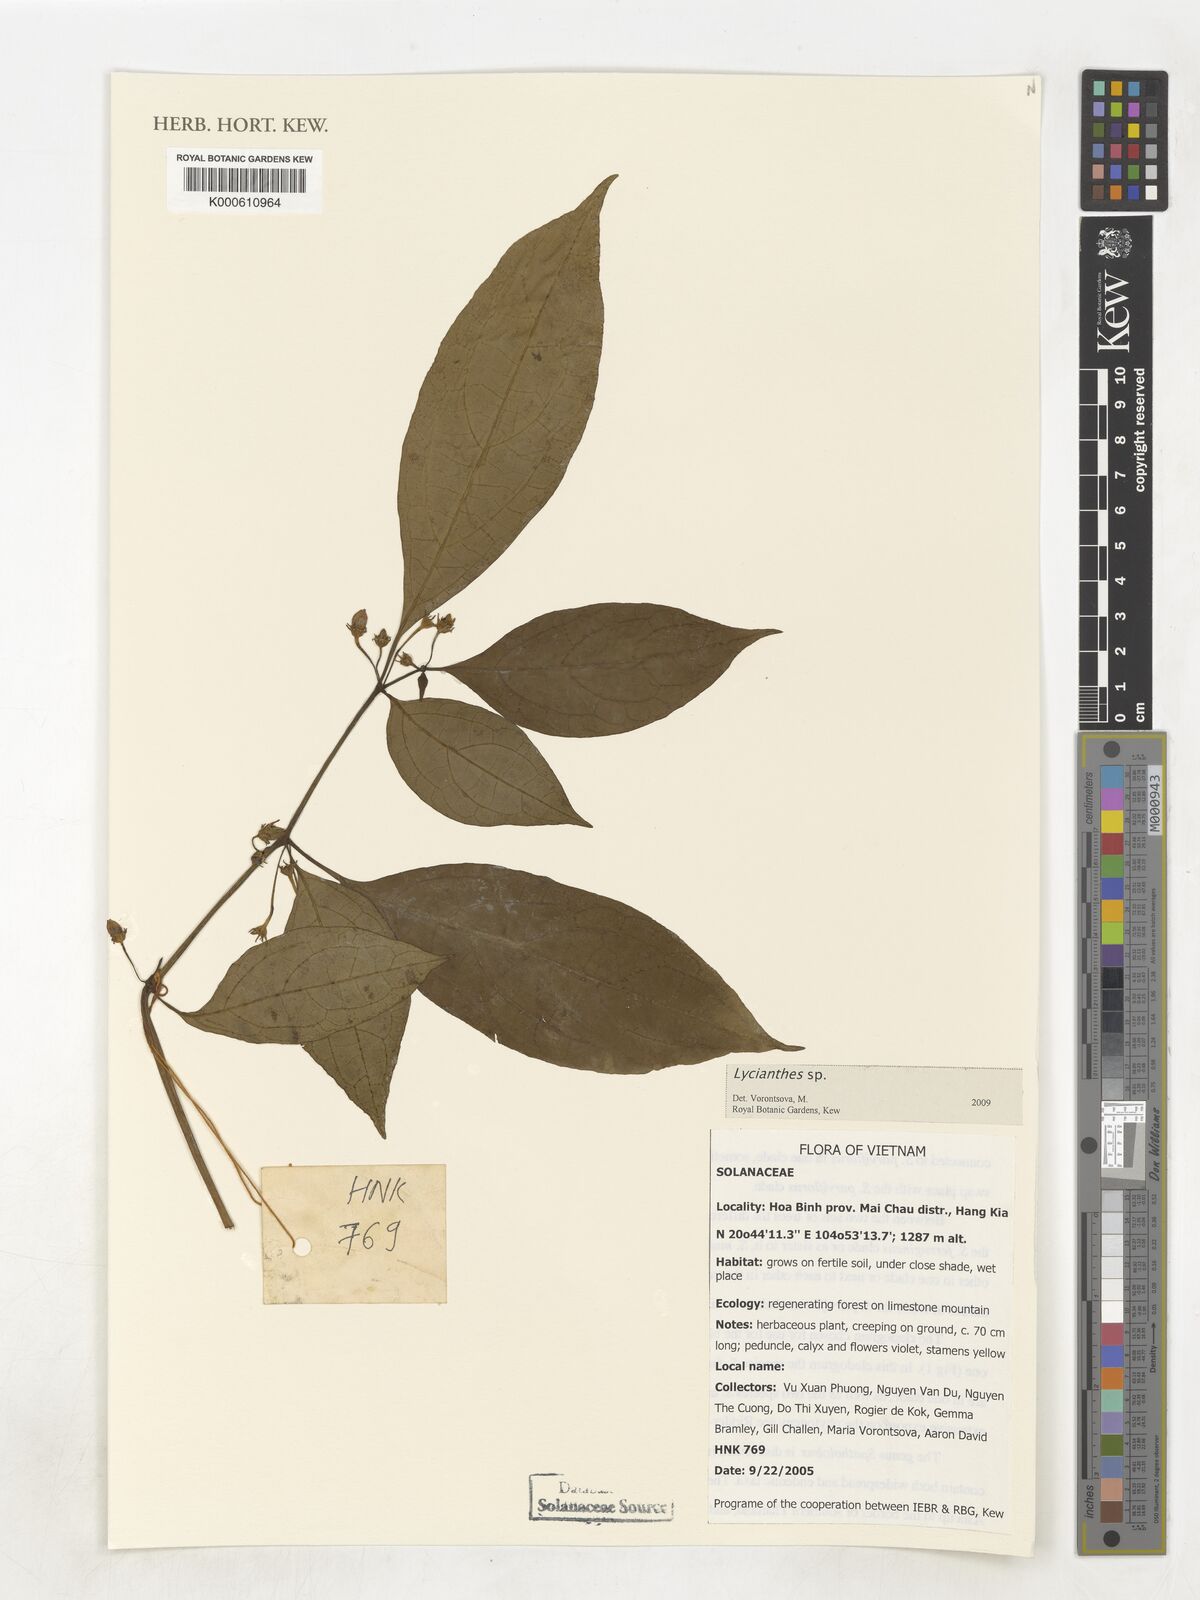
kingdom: Plantae
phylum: Tracheophyta
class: Magnoliopsida
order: Solanales
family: Solanaceae
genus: Lycianthes
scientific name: Lycianthes
